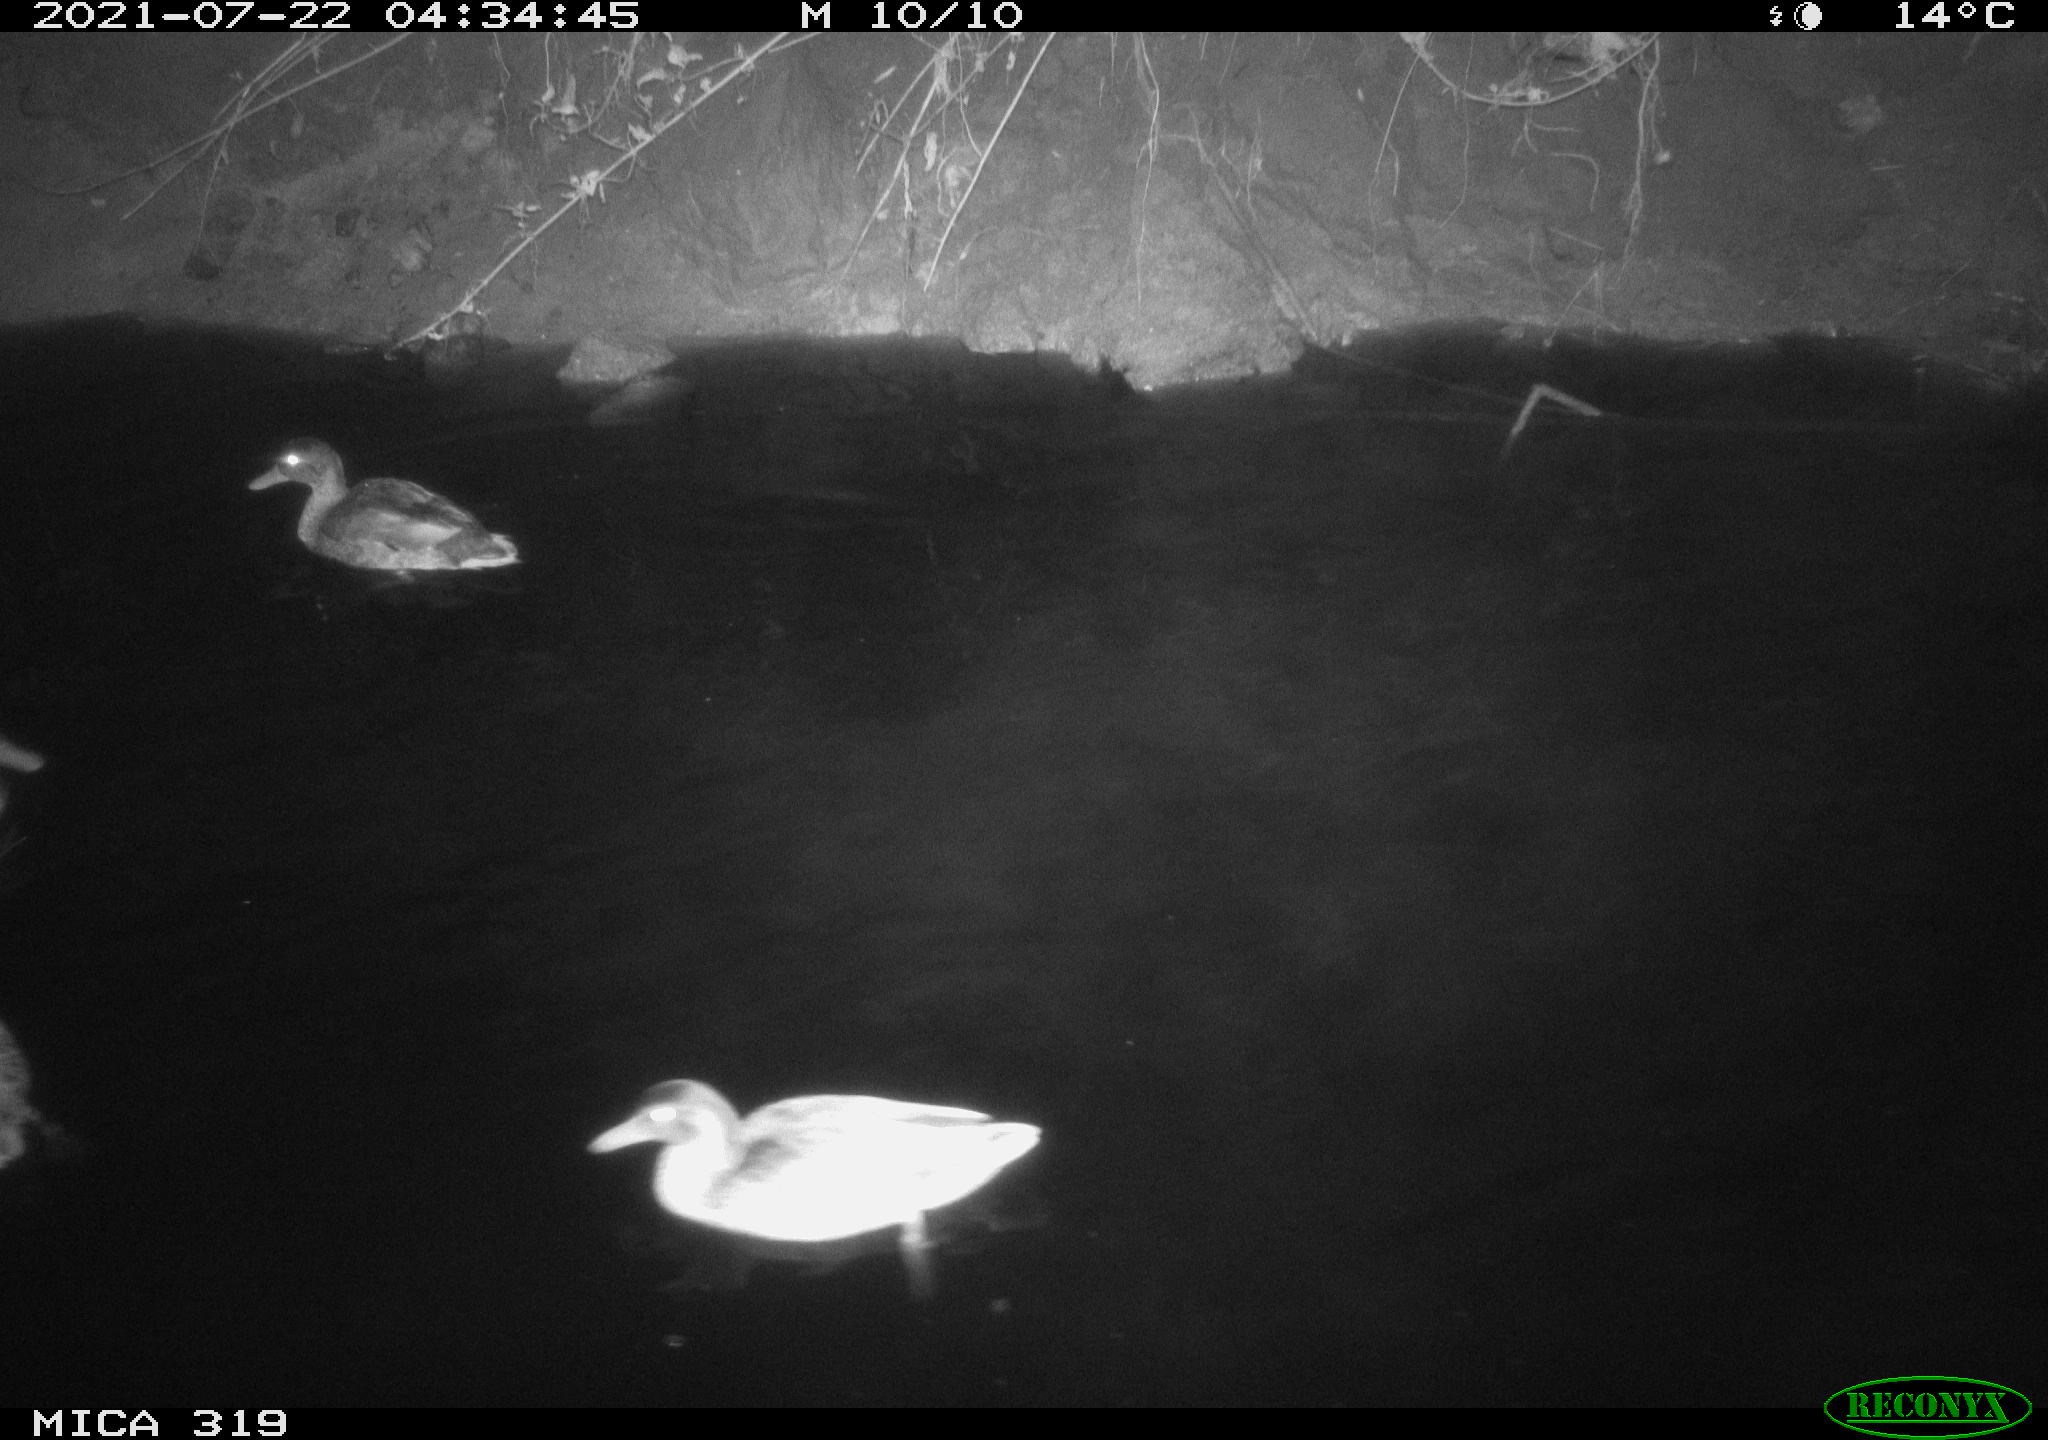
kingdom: Animalia
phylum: Chordata
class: Aves
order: Anseriformes
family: Anatidae
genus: Anas
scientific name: Anas platyrhynchos
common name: Mallard
